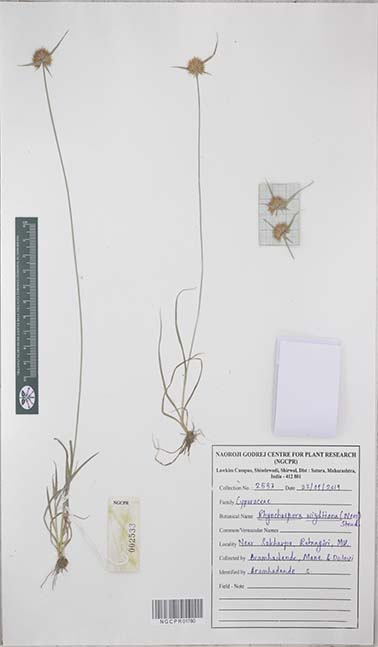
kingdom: Plantae
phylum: Tracheophyta
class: Liliopsida
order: Poales
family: Cyperaceae
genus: Rhynchospora
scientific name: Rhynchospora wightiana
